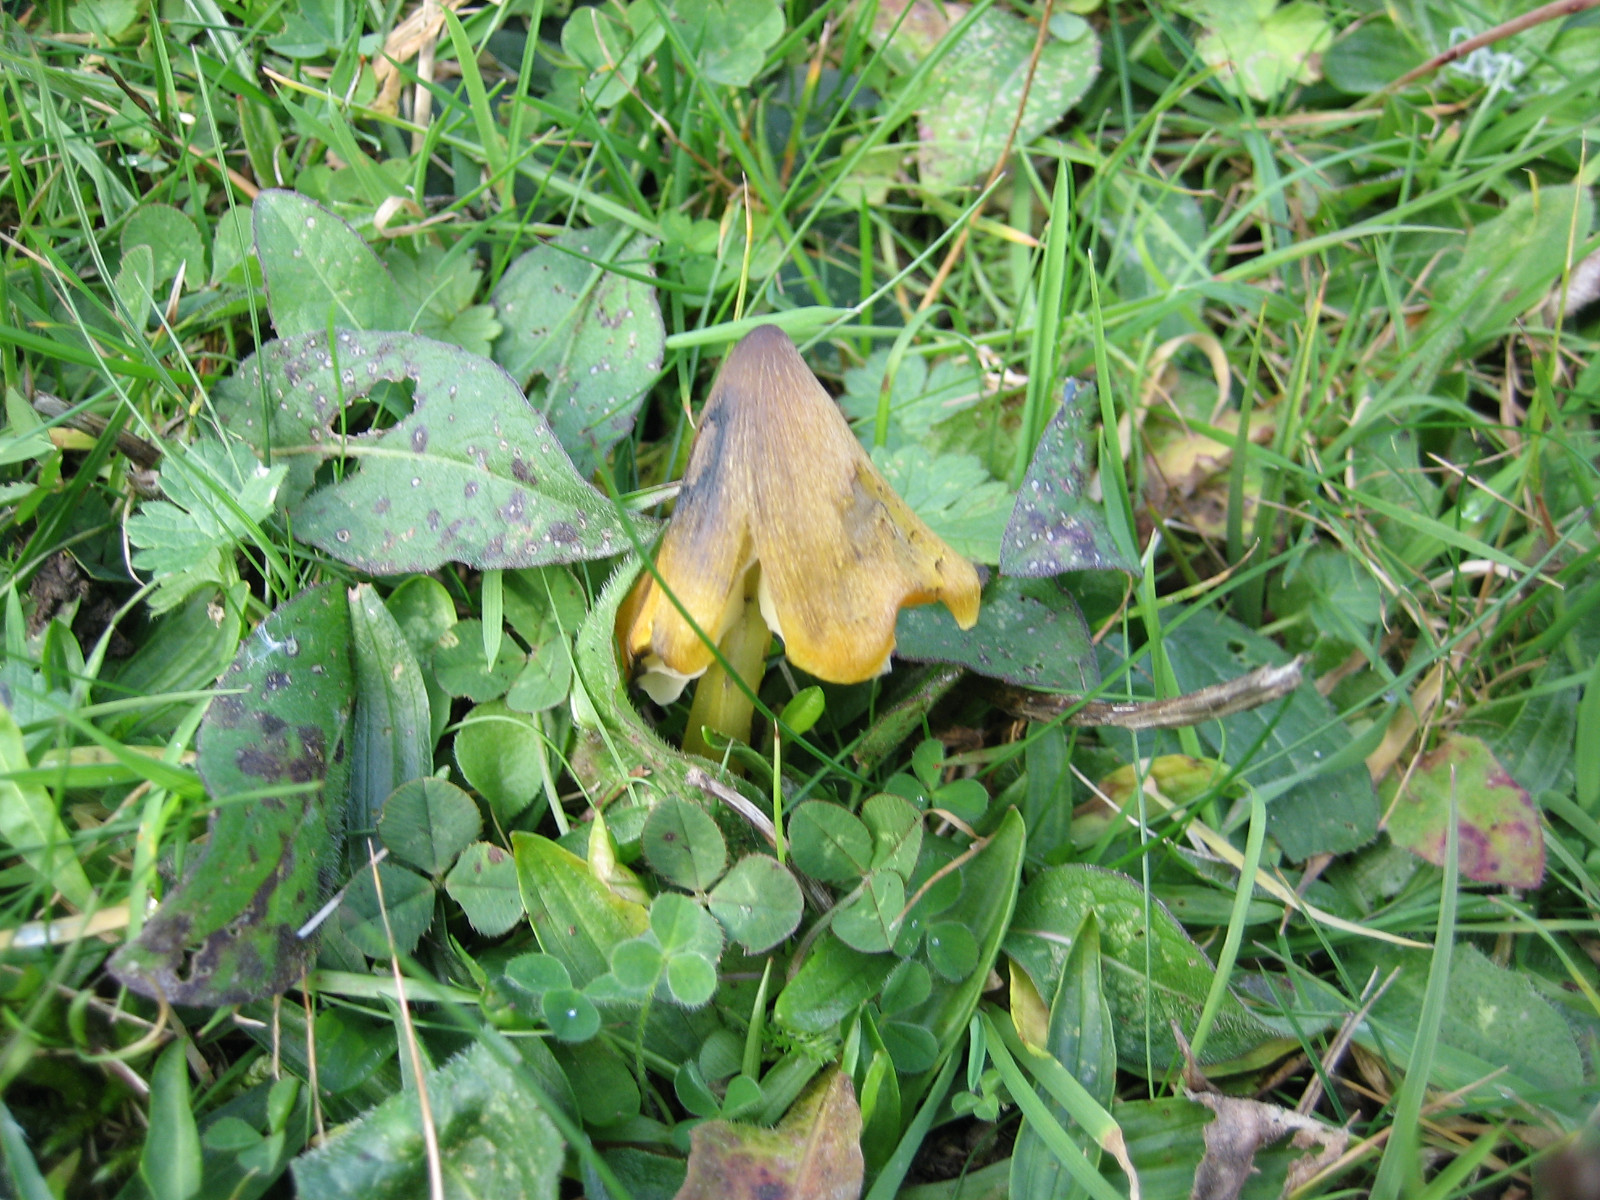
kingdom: Fungi
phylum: Basidiomycota
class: Agaricomycetes
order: Agaricales
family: Hygrophoraceae
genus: Hygrocybe
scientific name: Hygrocybe conica
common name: kegle-vokshat
